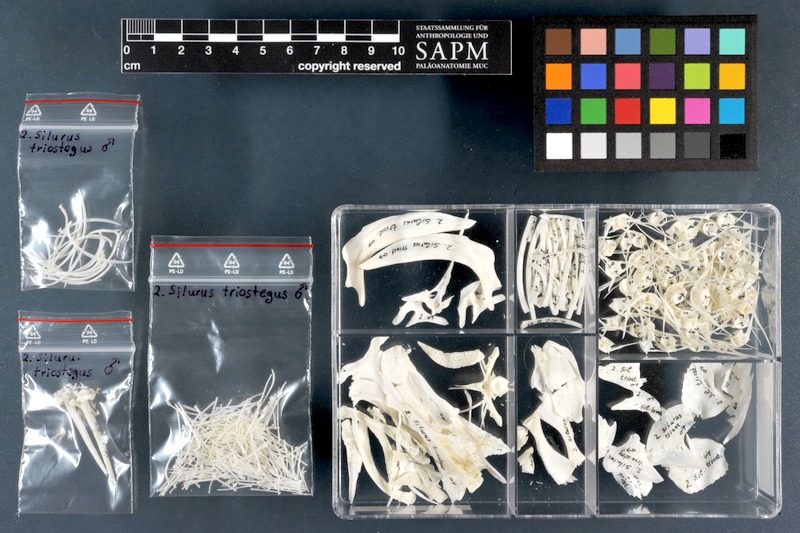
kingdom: Animalia
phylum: Chordata
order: Siluriformes
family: Siluridae
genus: Silurus
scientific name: Silurus triostegus
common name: Mesopotamian catfish
